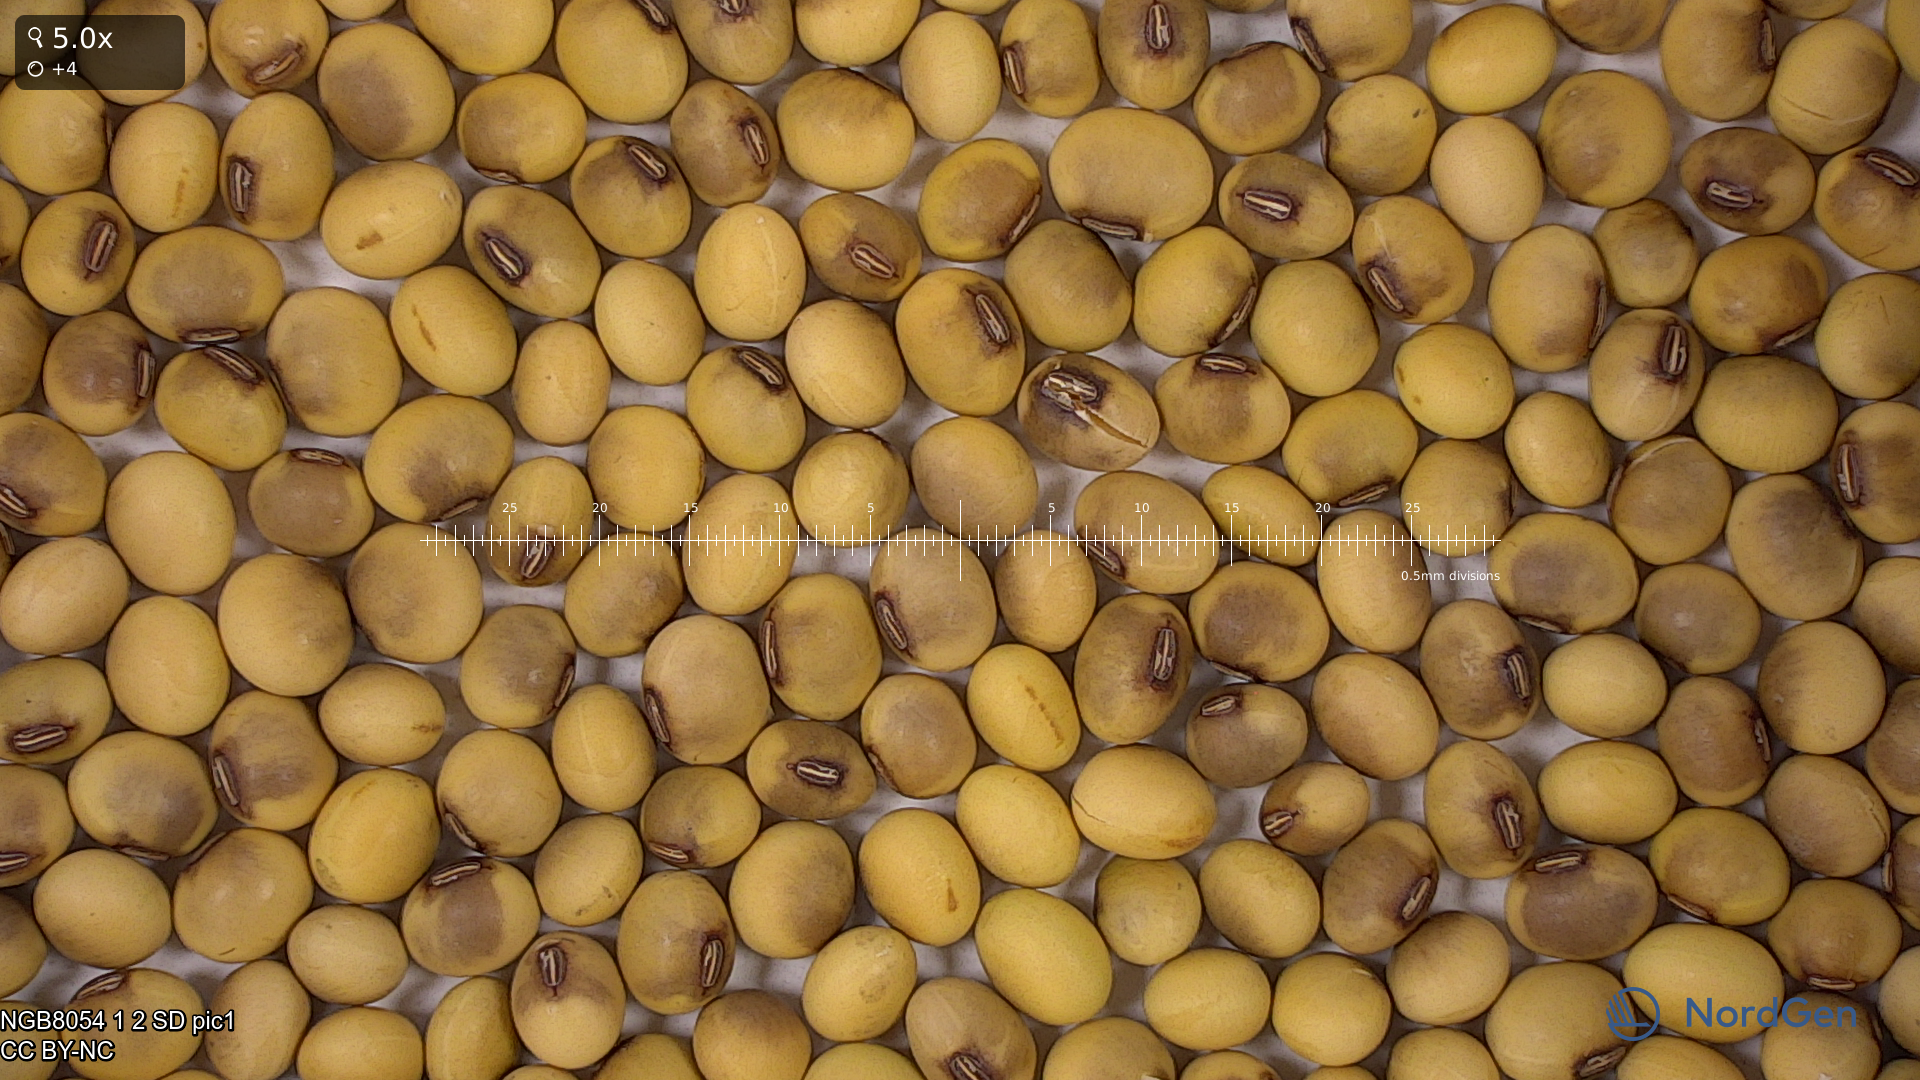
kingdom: Plantae
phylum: Tracheophyta
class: Magnoliopsida
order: Fabales
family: Fabaceae
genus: Glycine
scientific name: Glycine max
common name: Soya-bean
